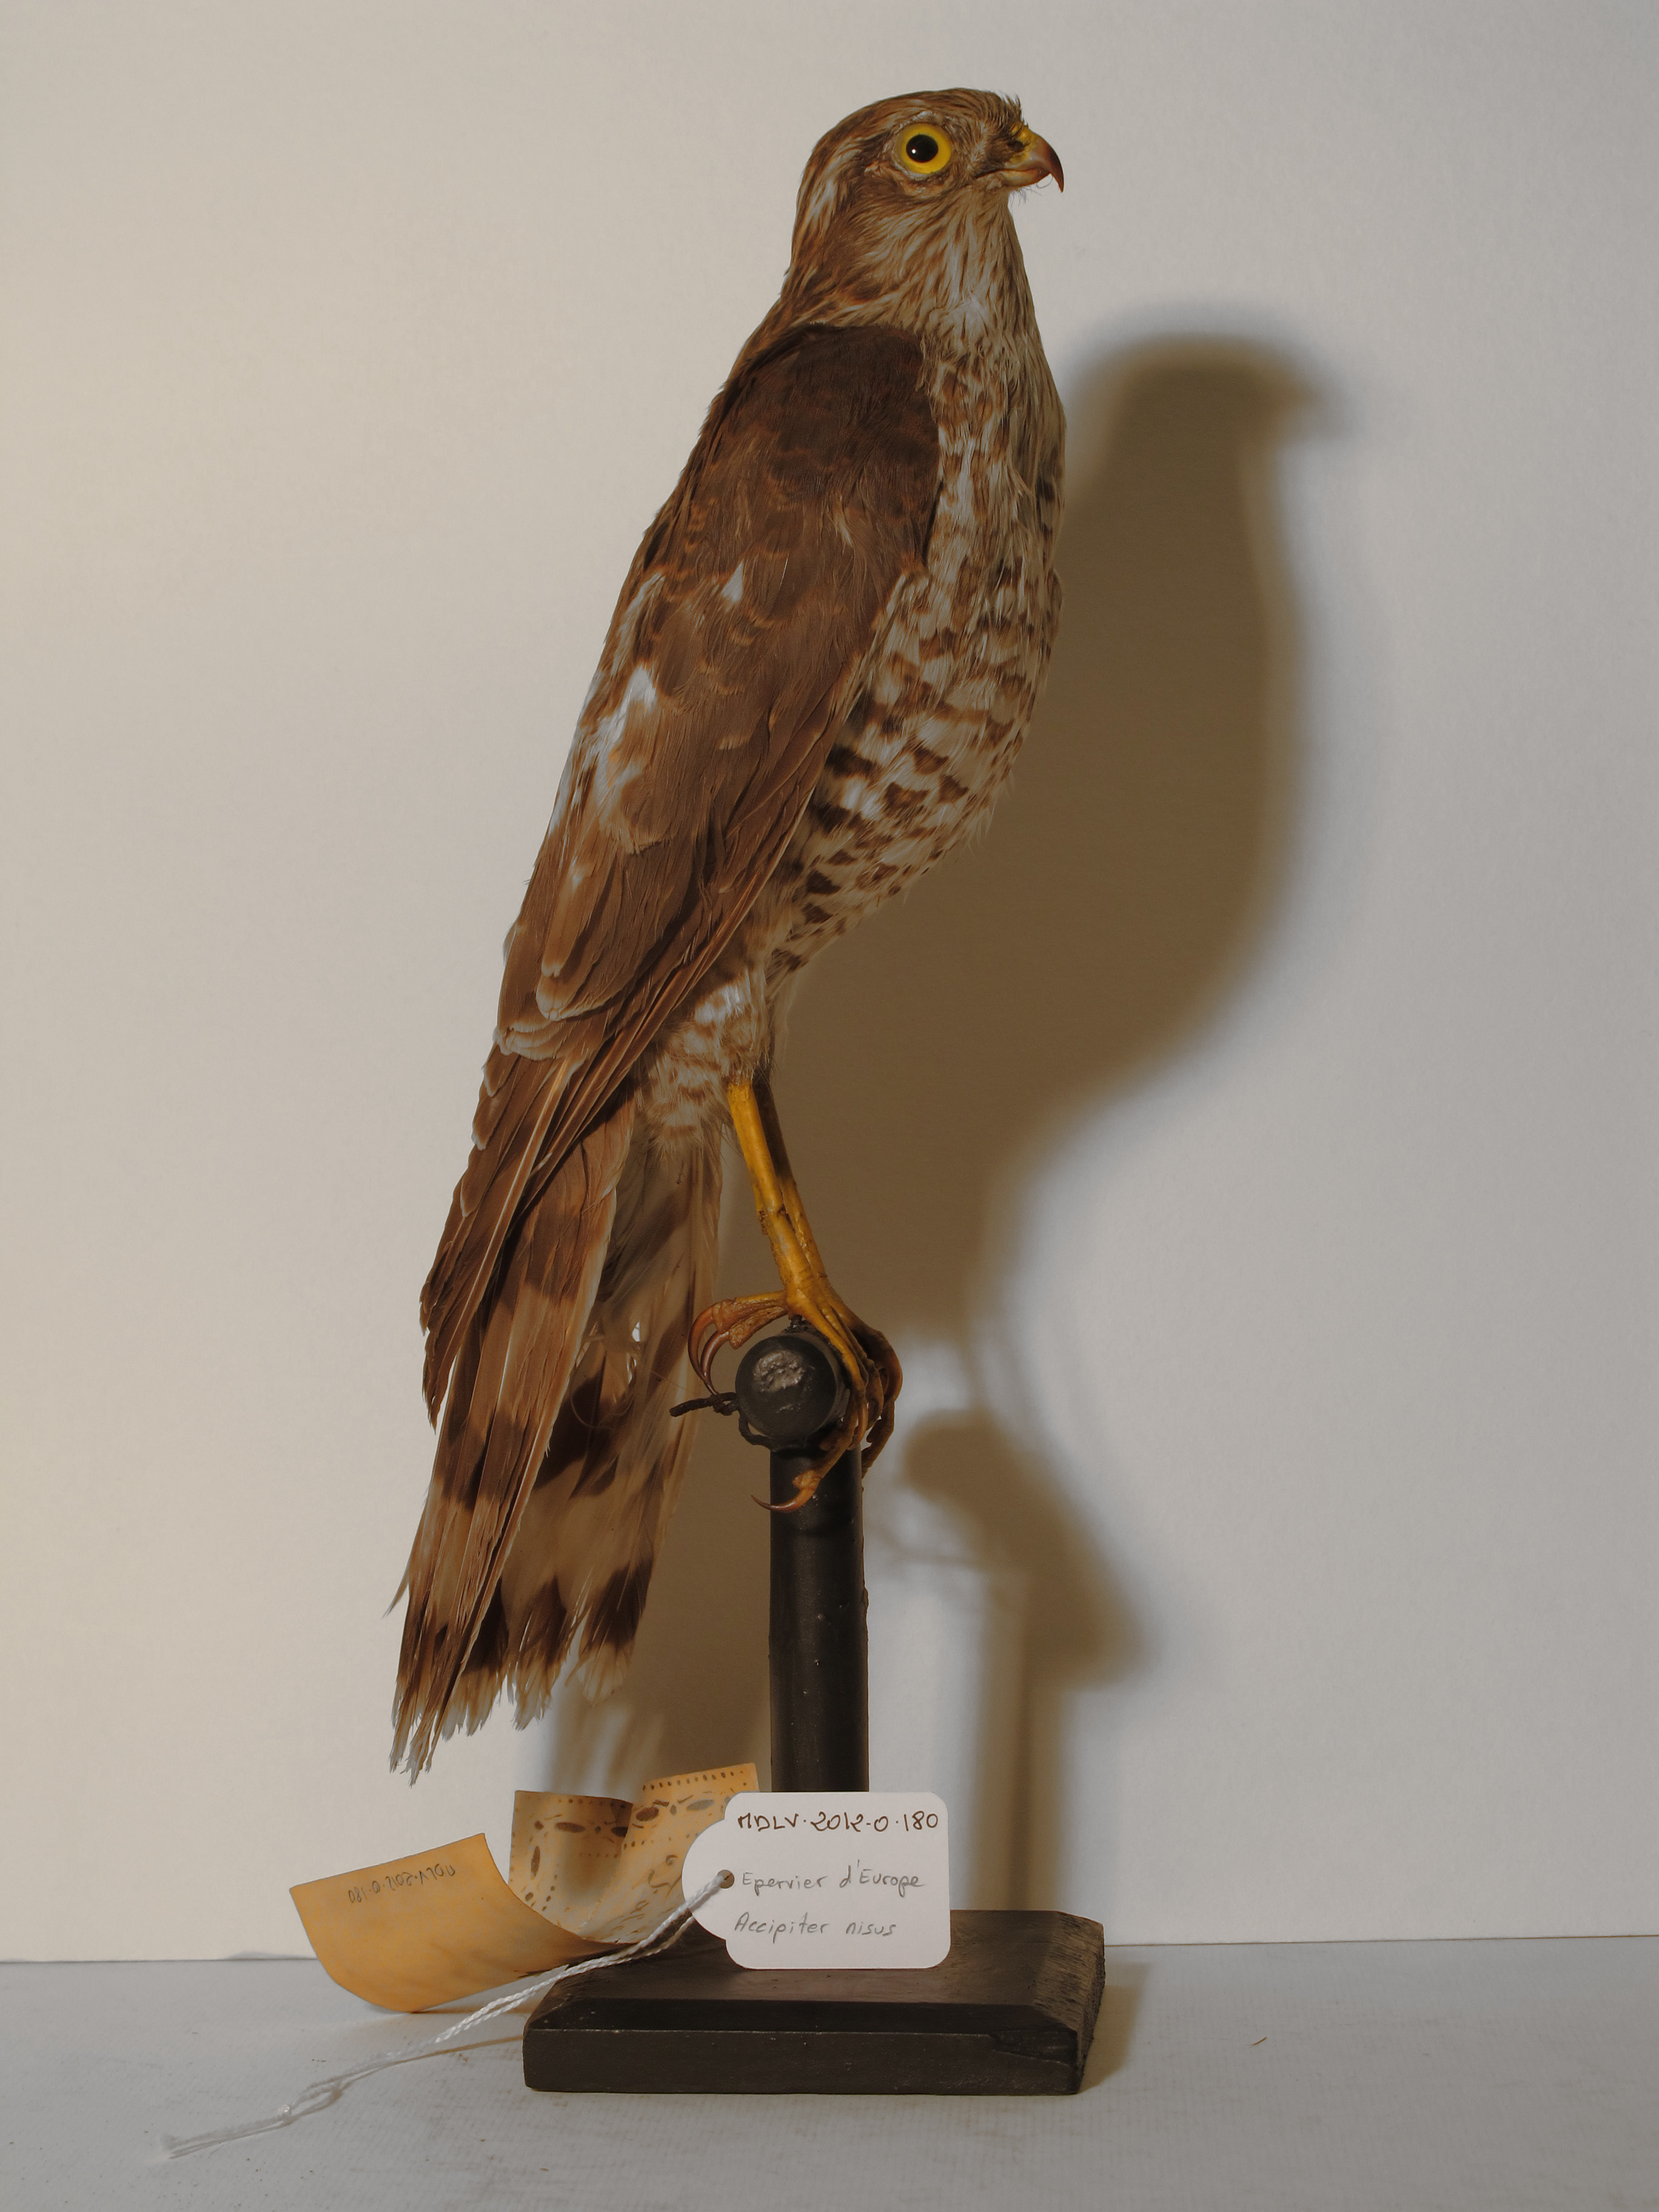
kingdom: Animalia
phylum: Chordata
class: Aves
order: Accipitriformes
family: Accipitridae
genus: Accipiter
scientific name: Accipiter nisus
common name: Eurasian Sparrowhawk
